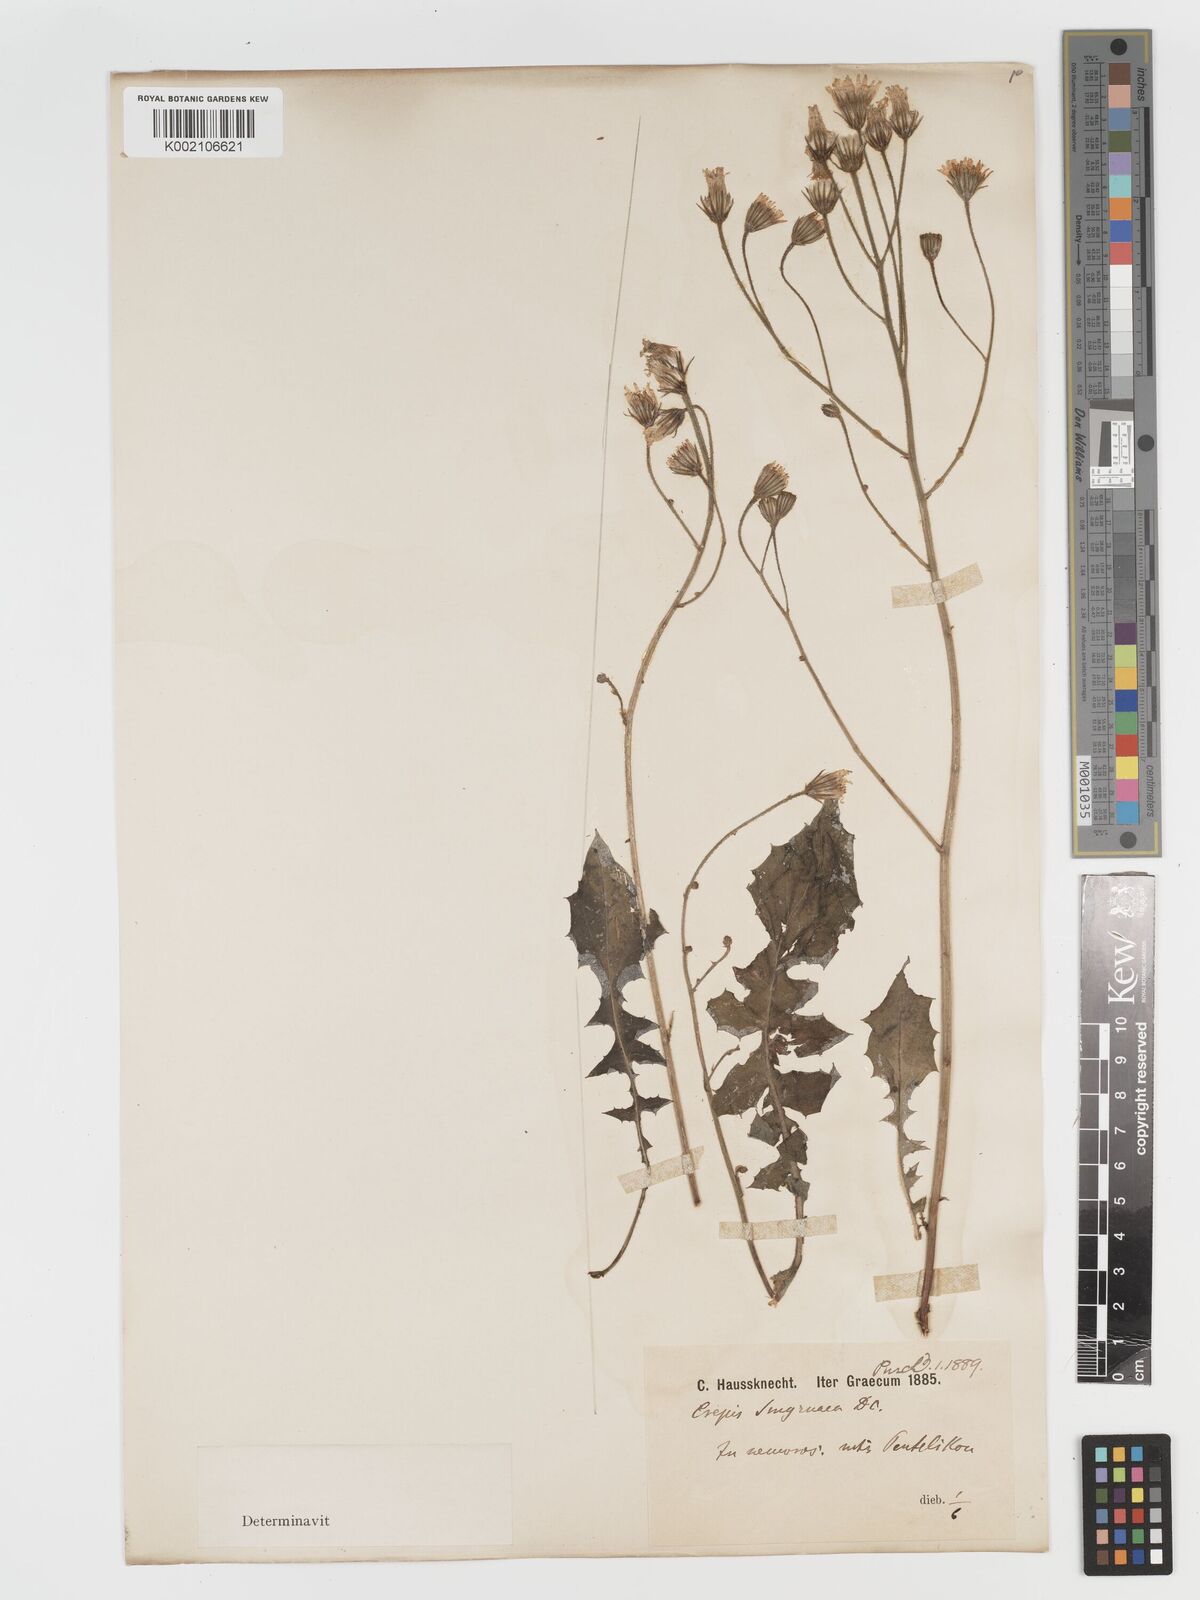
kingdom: Plantae
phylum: Tracheophyta
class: Magnoliopsida
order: Asterales
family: Asteraceae
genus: Crepis
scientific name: Crepis smyrnaea
